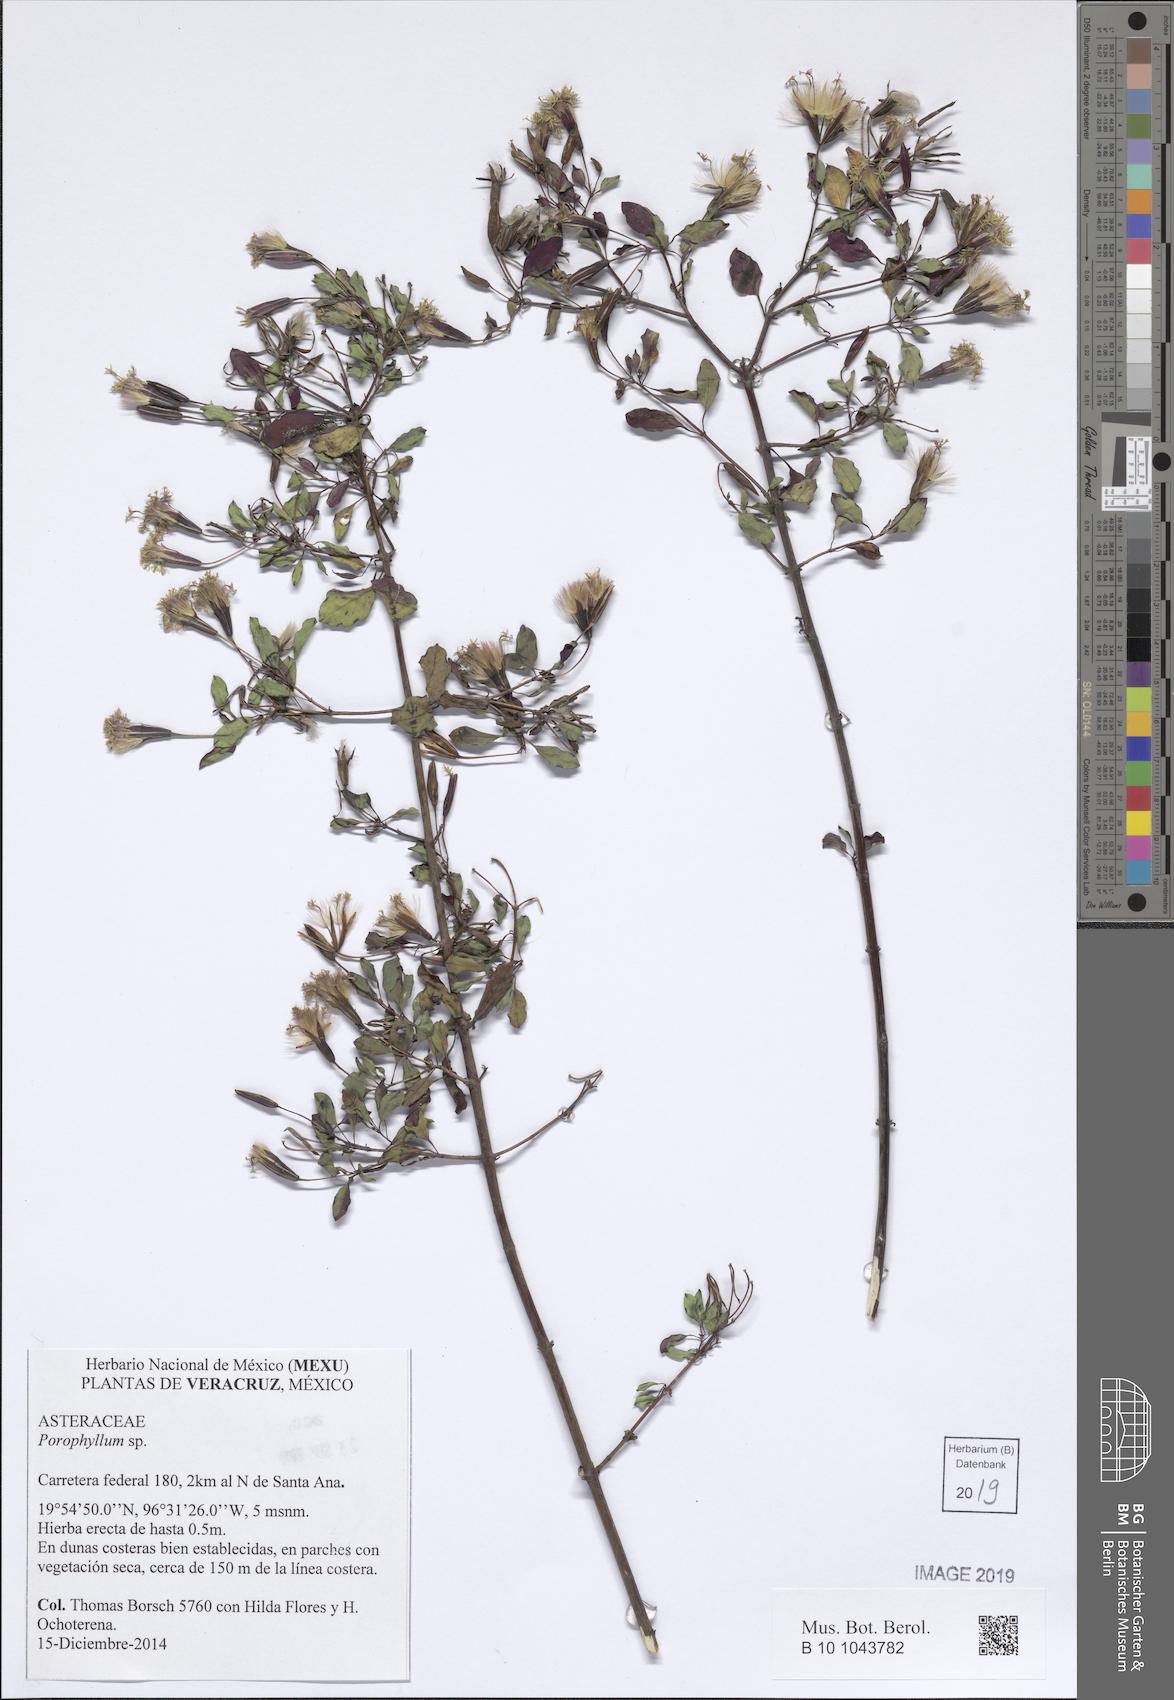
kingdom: Plantae
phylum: Tracheophyta
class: Magnoliopsida
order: Asterales
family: Asteraceae
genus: Porophyllum
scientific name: Porophyllum
